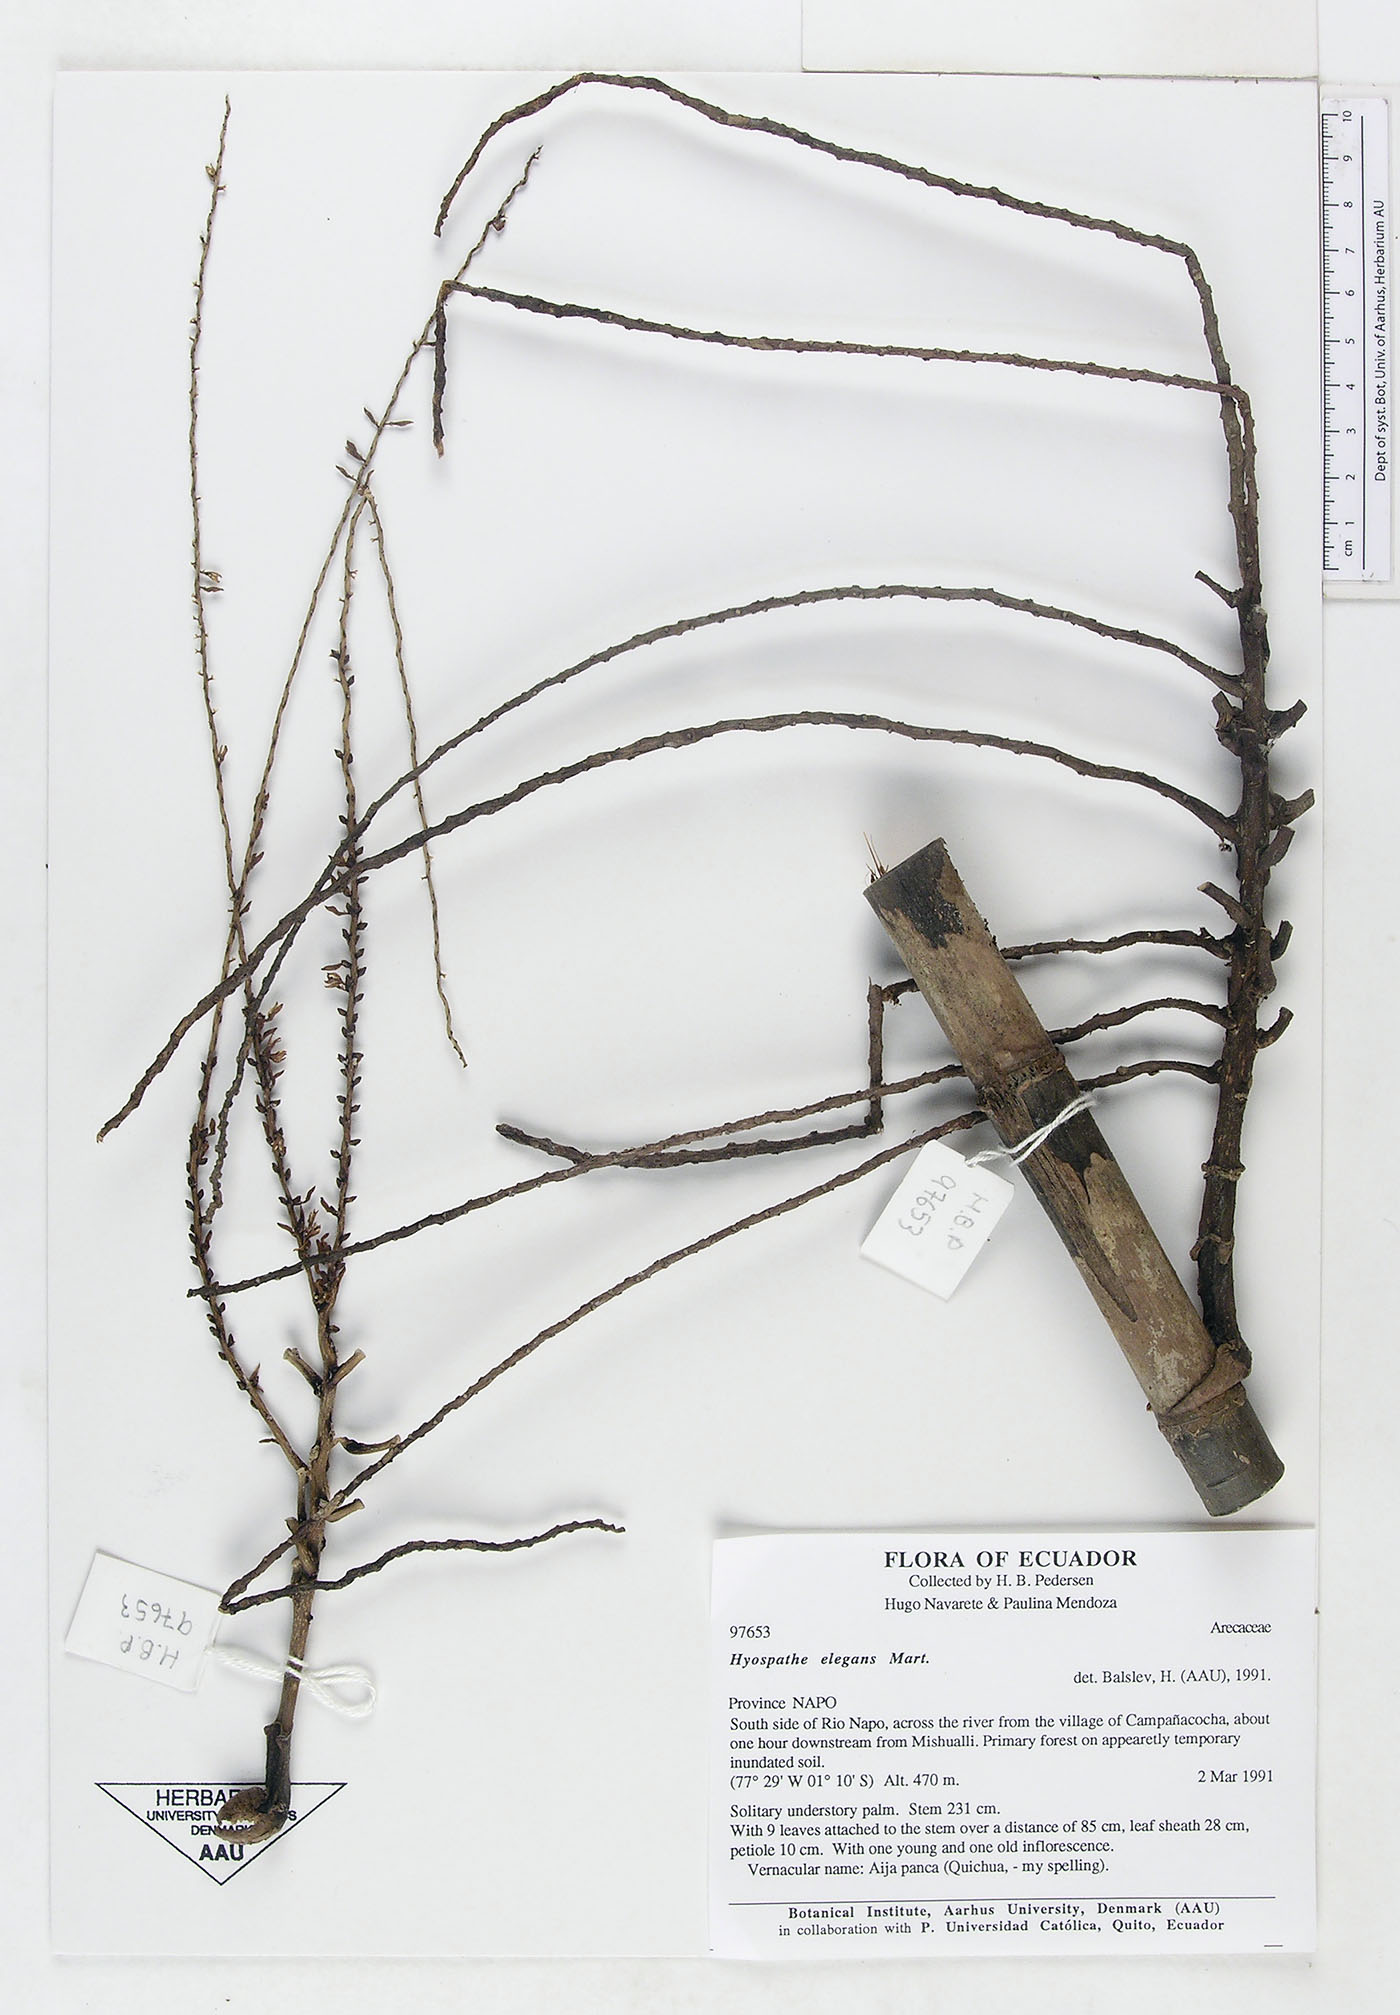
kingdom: Plantae
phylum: Tracheophyta
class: Liliopsida
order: Arecales
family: Arecaceae
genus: Hyospathe
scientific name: Hyospathe elegans
